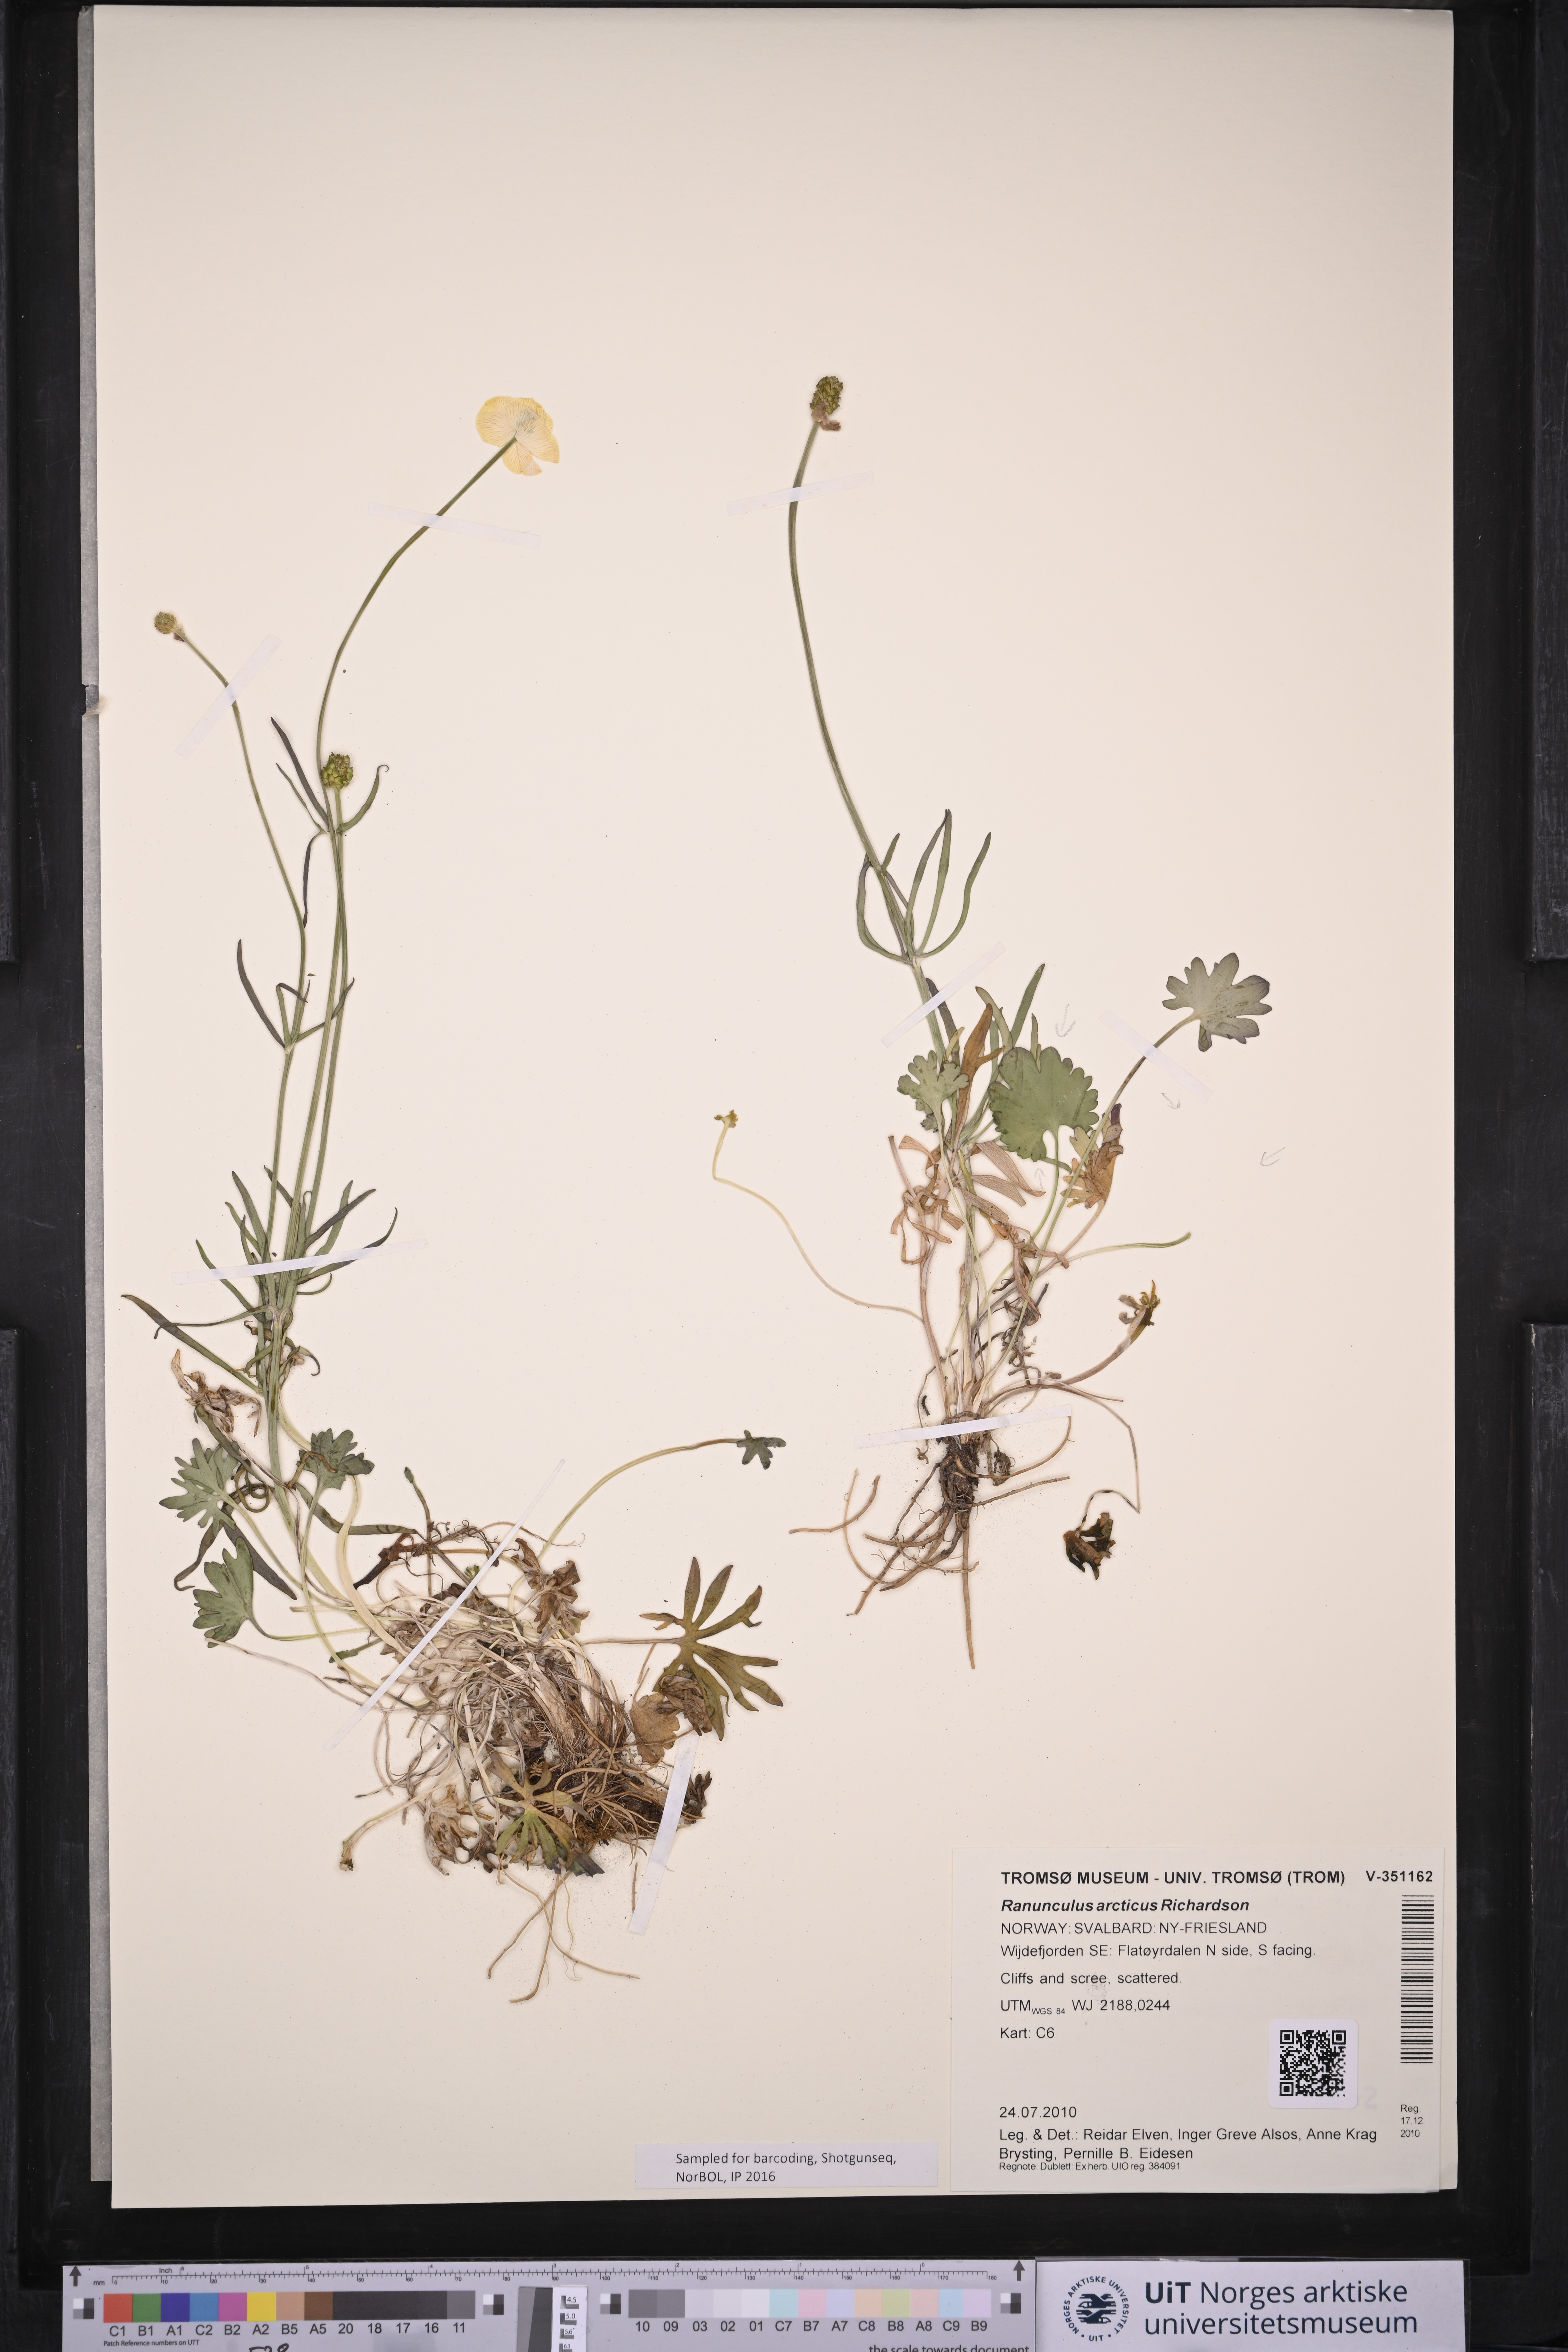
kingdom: Plantae
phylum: Tracheophyta
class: Magnoliopsida
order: Ranunculales
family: Ranunculaceae
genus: Ranunculus
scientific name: Ranunculus arcticus
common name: Bird's-foot buttercup
